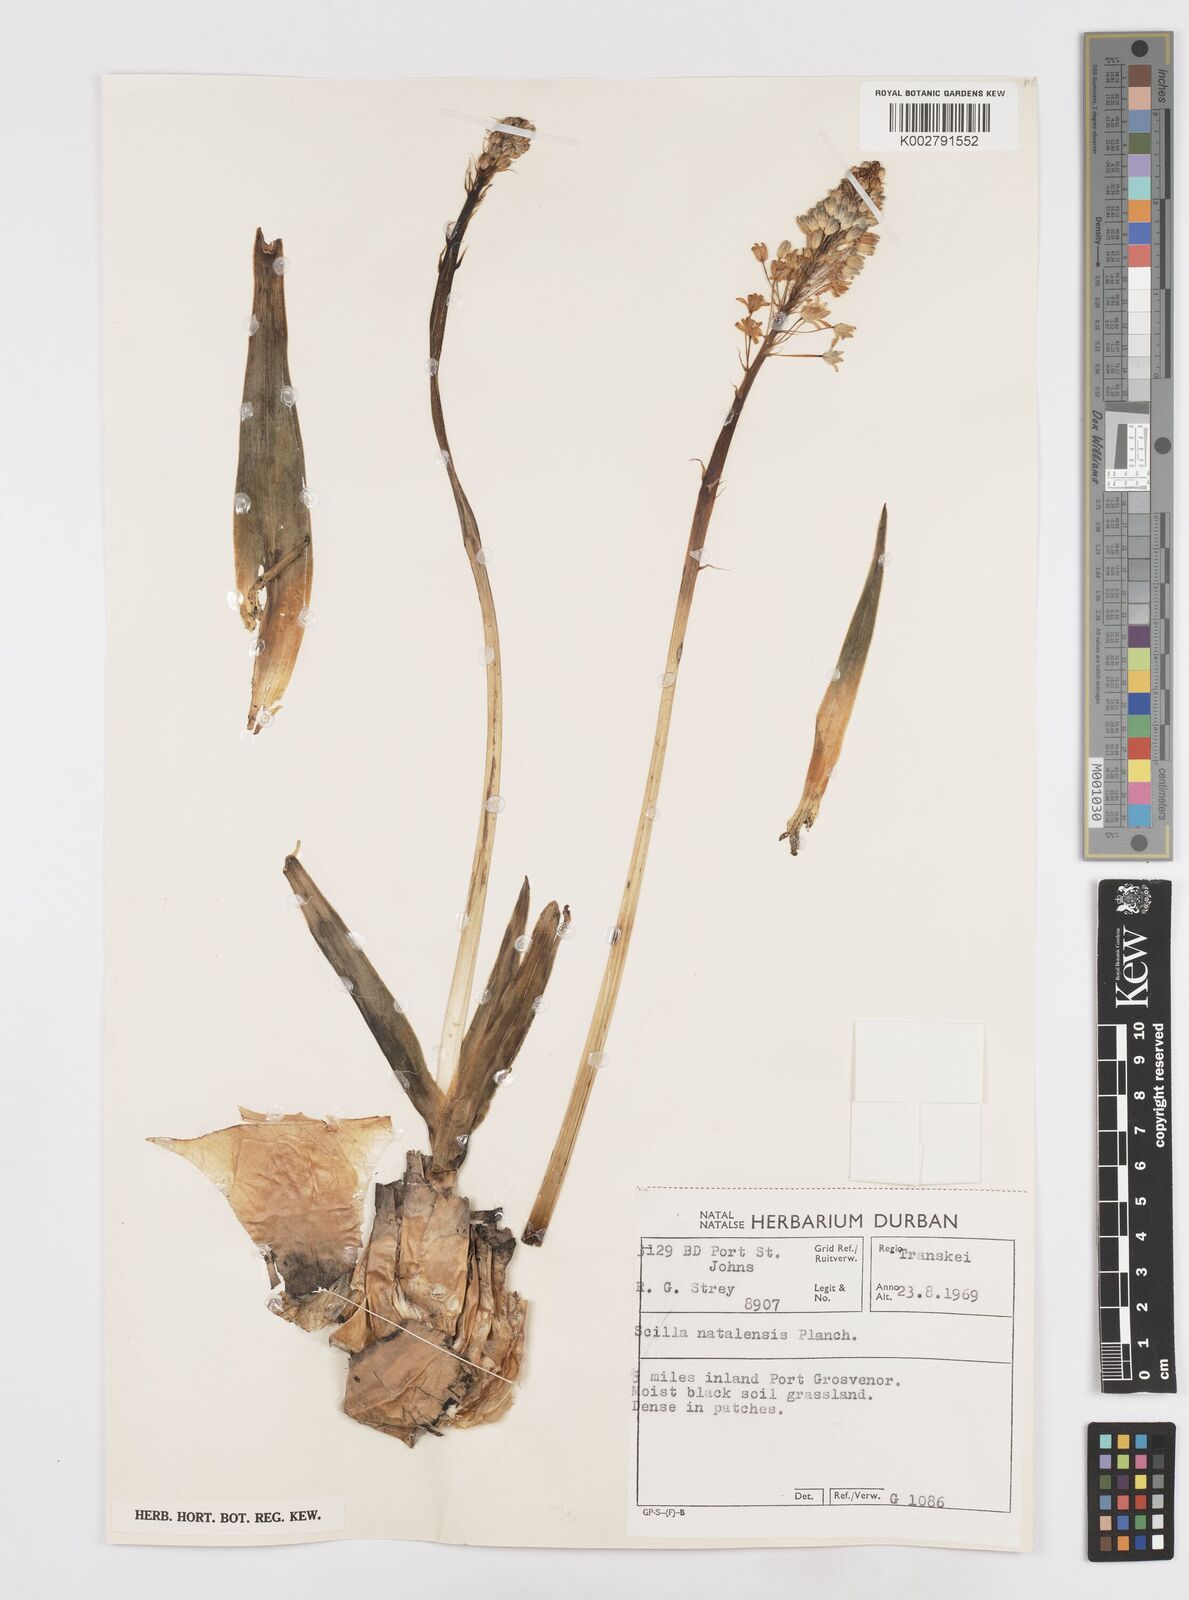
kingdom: Plantae
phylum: Tracheophyta
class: Liliopsida
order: Asparagales
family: Asparagaceae
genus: Merwilla
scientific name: Merwilla plumbea
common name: Blue-squill
